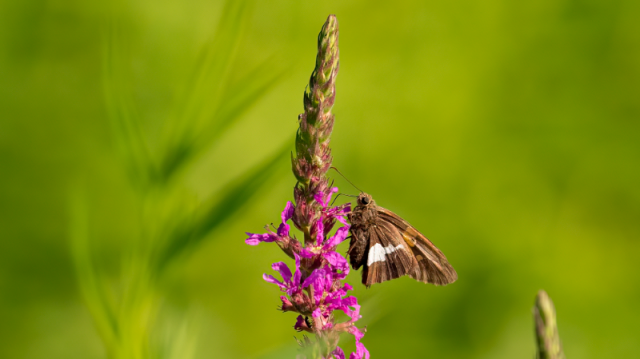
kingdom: Animalia
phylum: Arthropoda
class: Insecta
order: Lepidoptera
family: Hesperiidae
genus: Epargyreus
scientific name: Epargyreus clarus
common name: Silver-spotted Skipper
